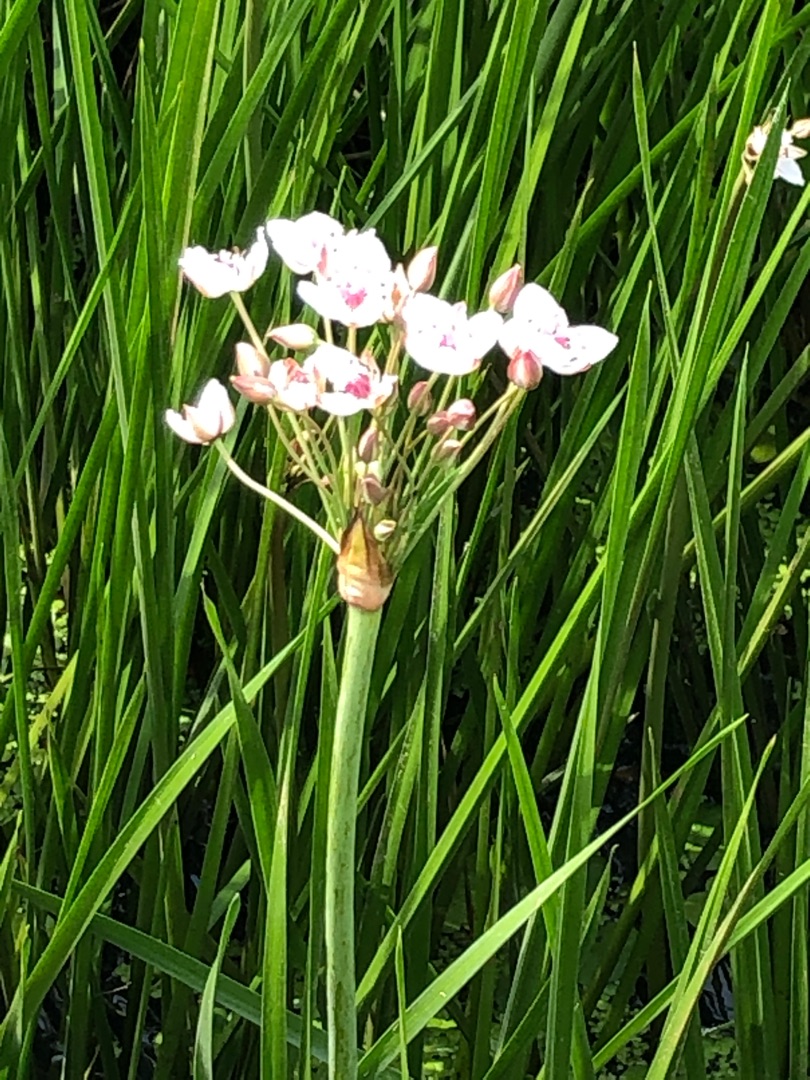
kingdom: Plantae
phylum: Tracheophyta
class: Liliopsida
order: Alismatales
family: Butomaceae
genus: Butomus
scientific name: Butomus umbellatus
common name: Brudelys
